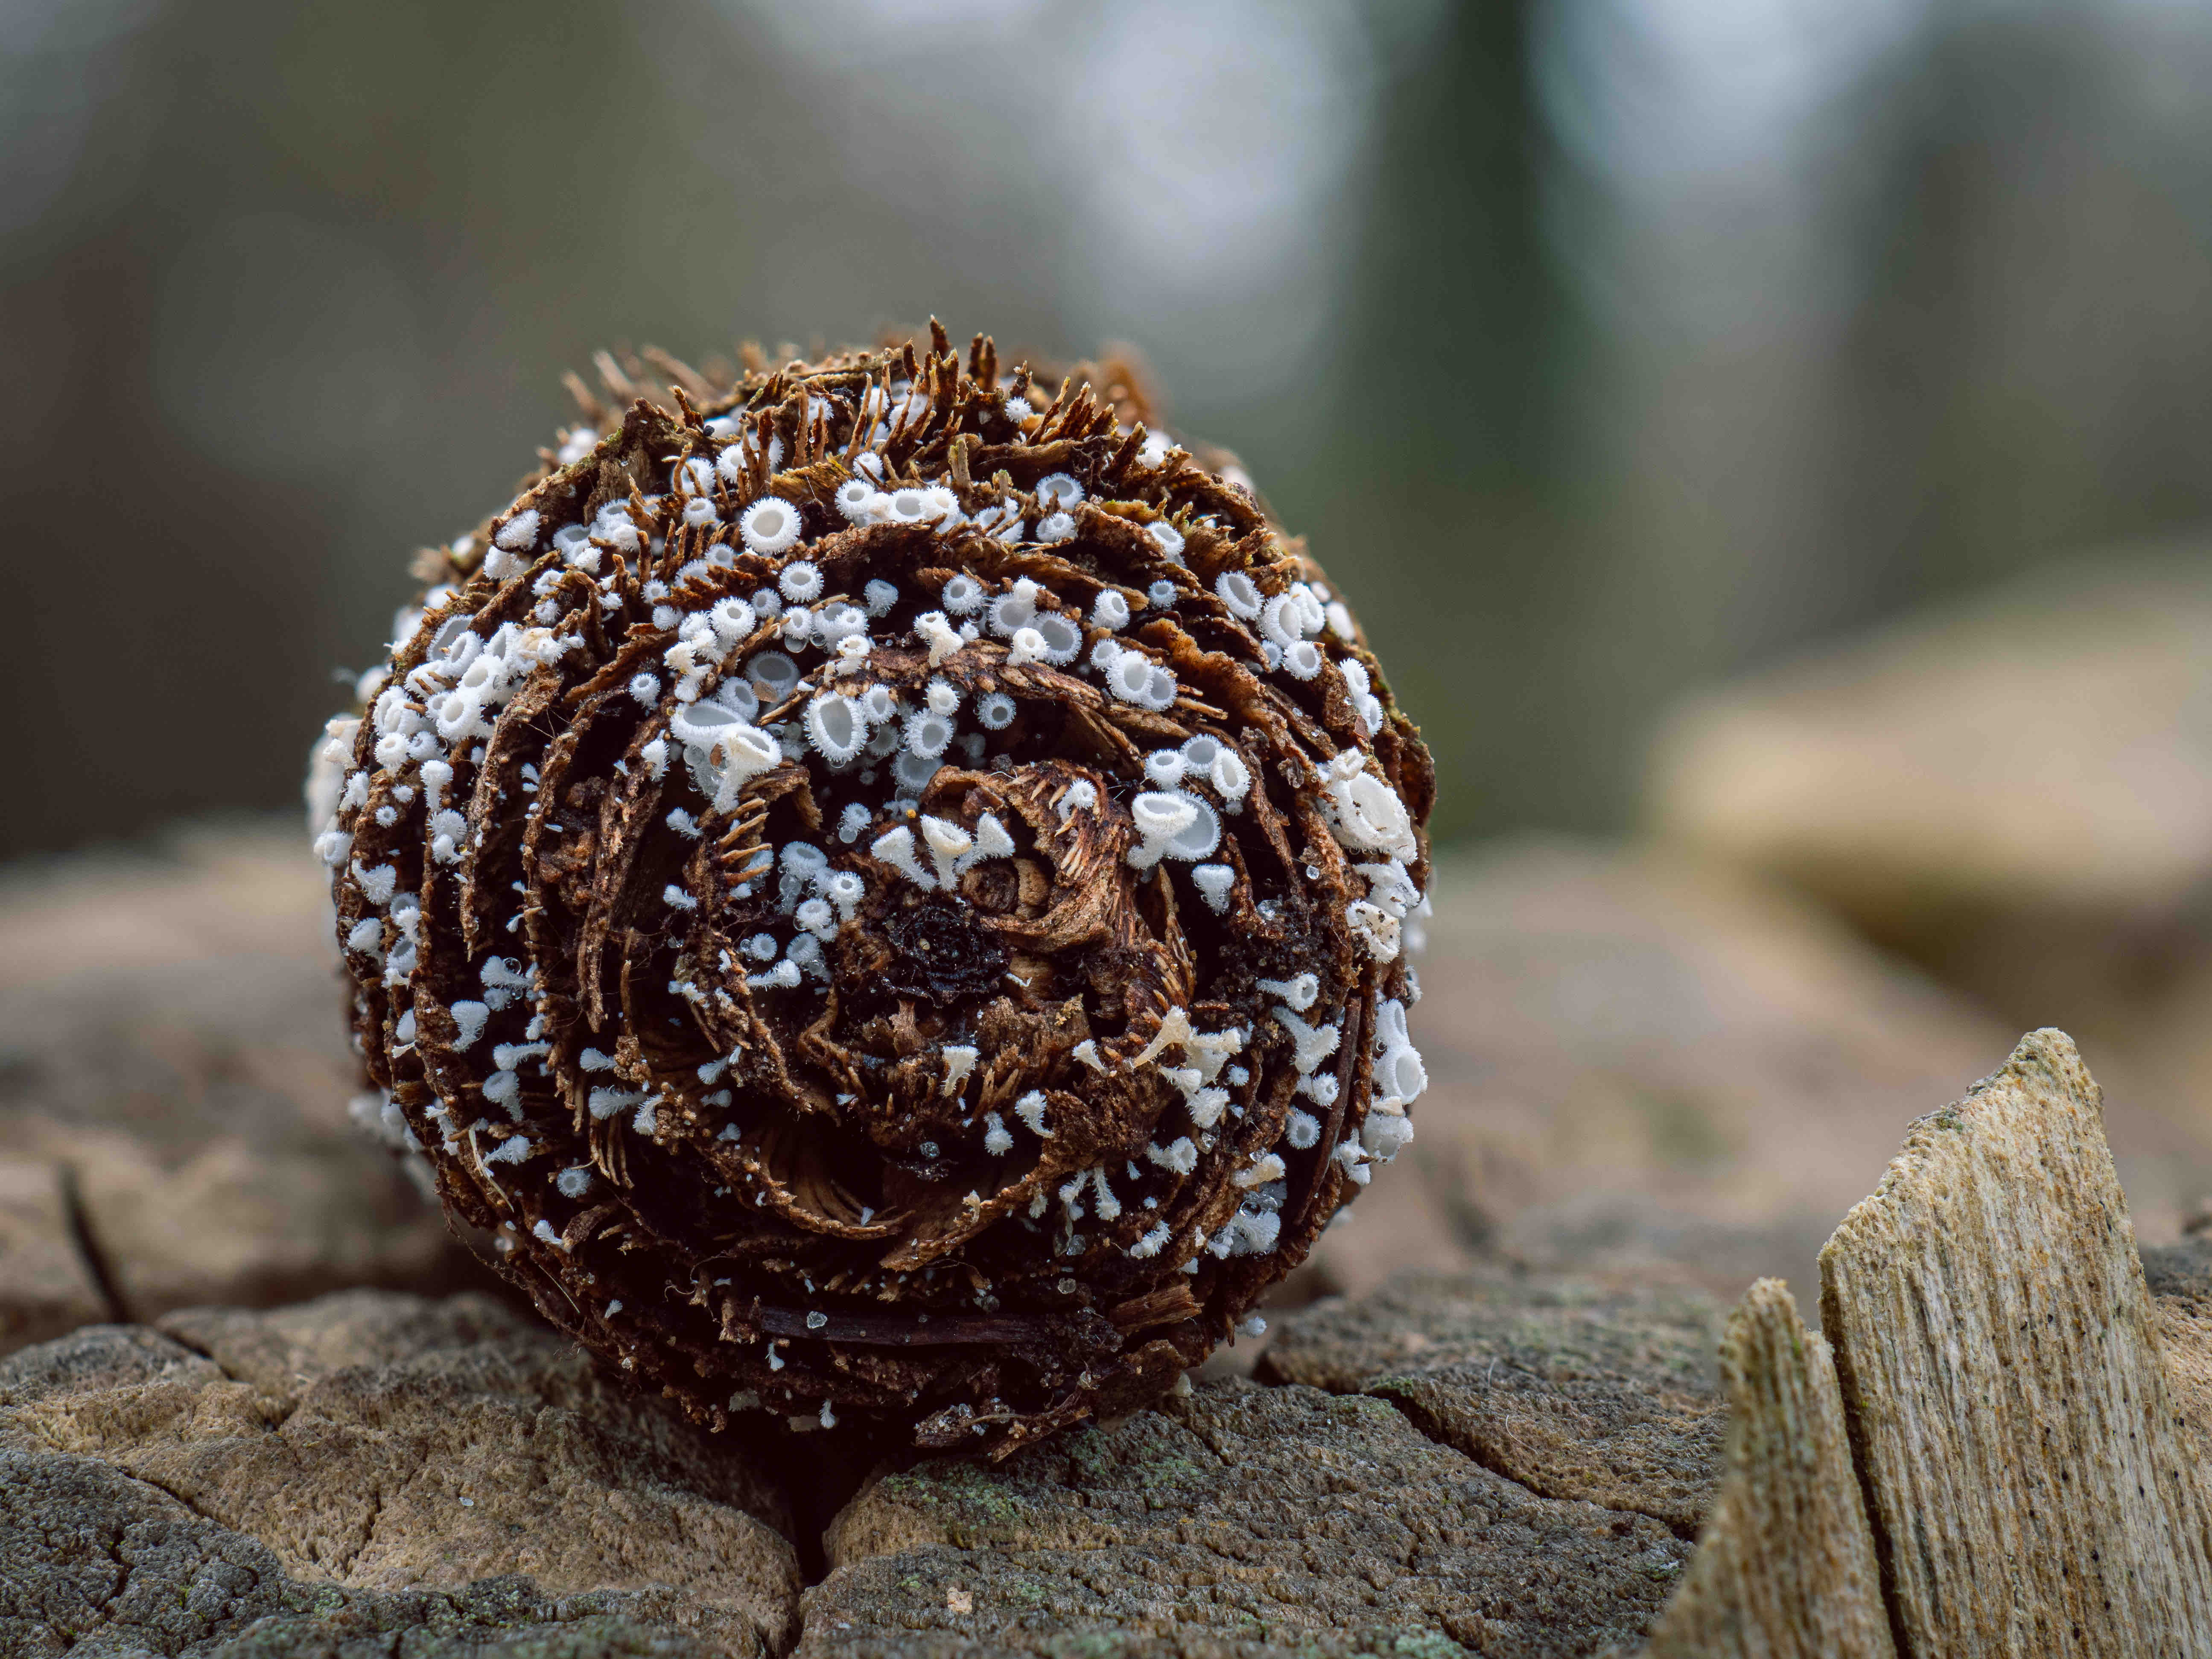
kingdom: Fungi
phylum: Ascomycota
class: Leotiomycetes
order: Helotiales
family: Lachnaceae
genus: Lachnum
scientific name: Lachnum virgineum
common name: jomfru-frynseskive
